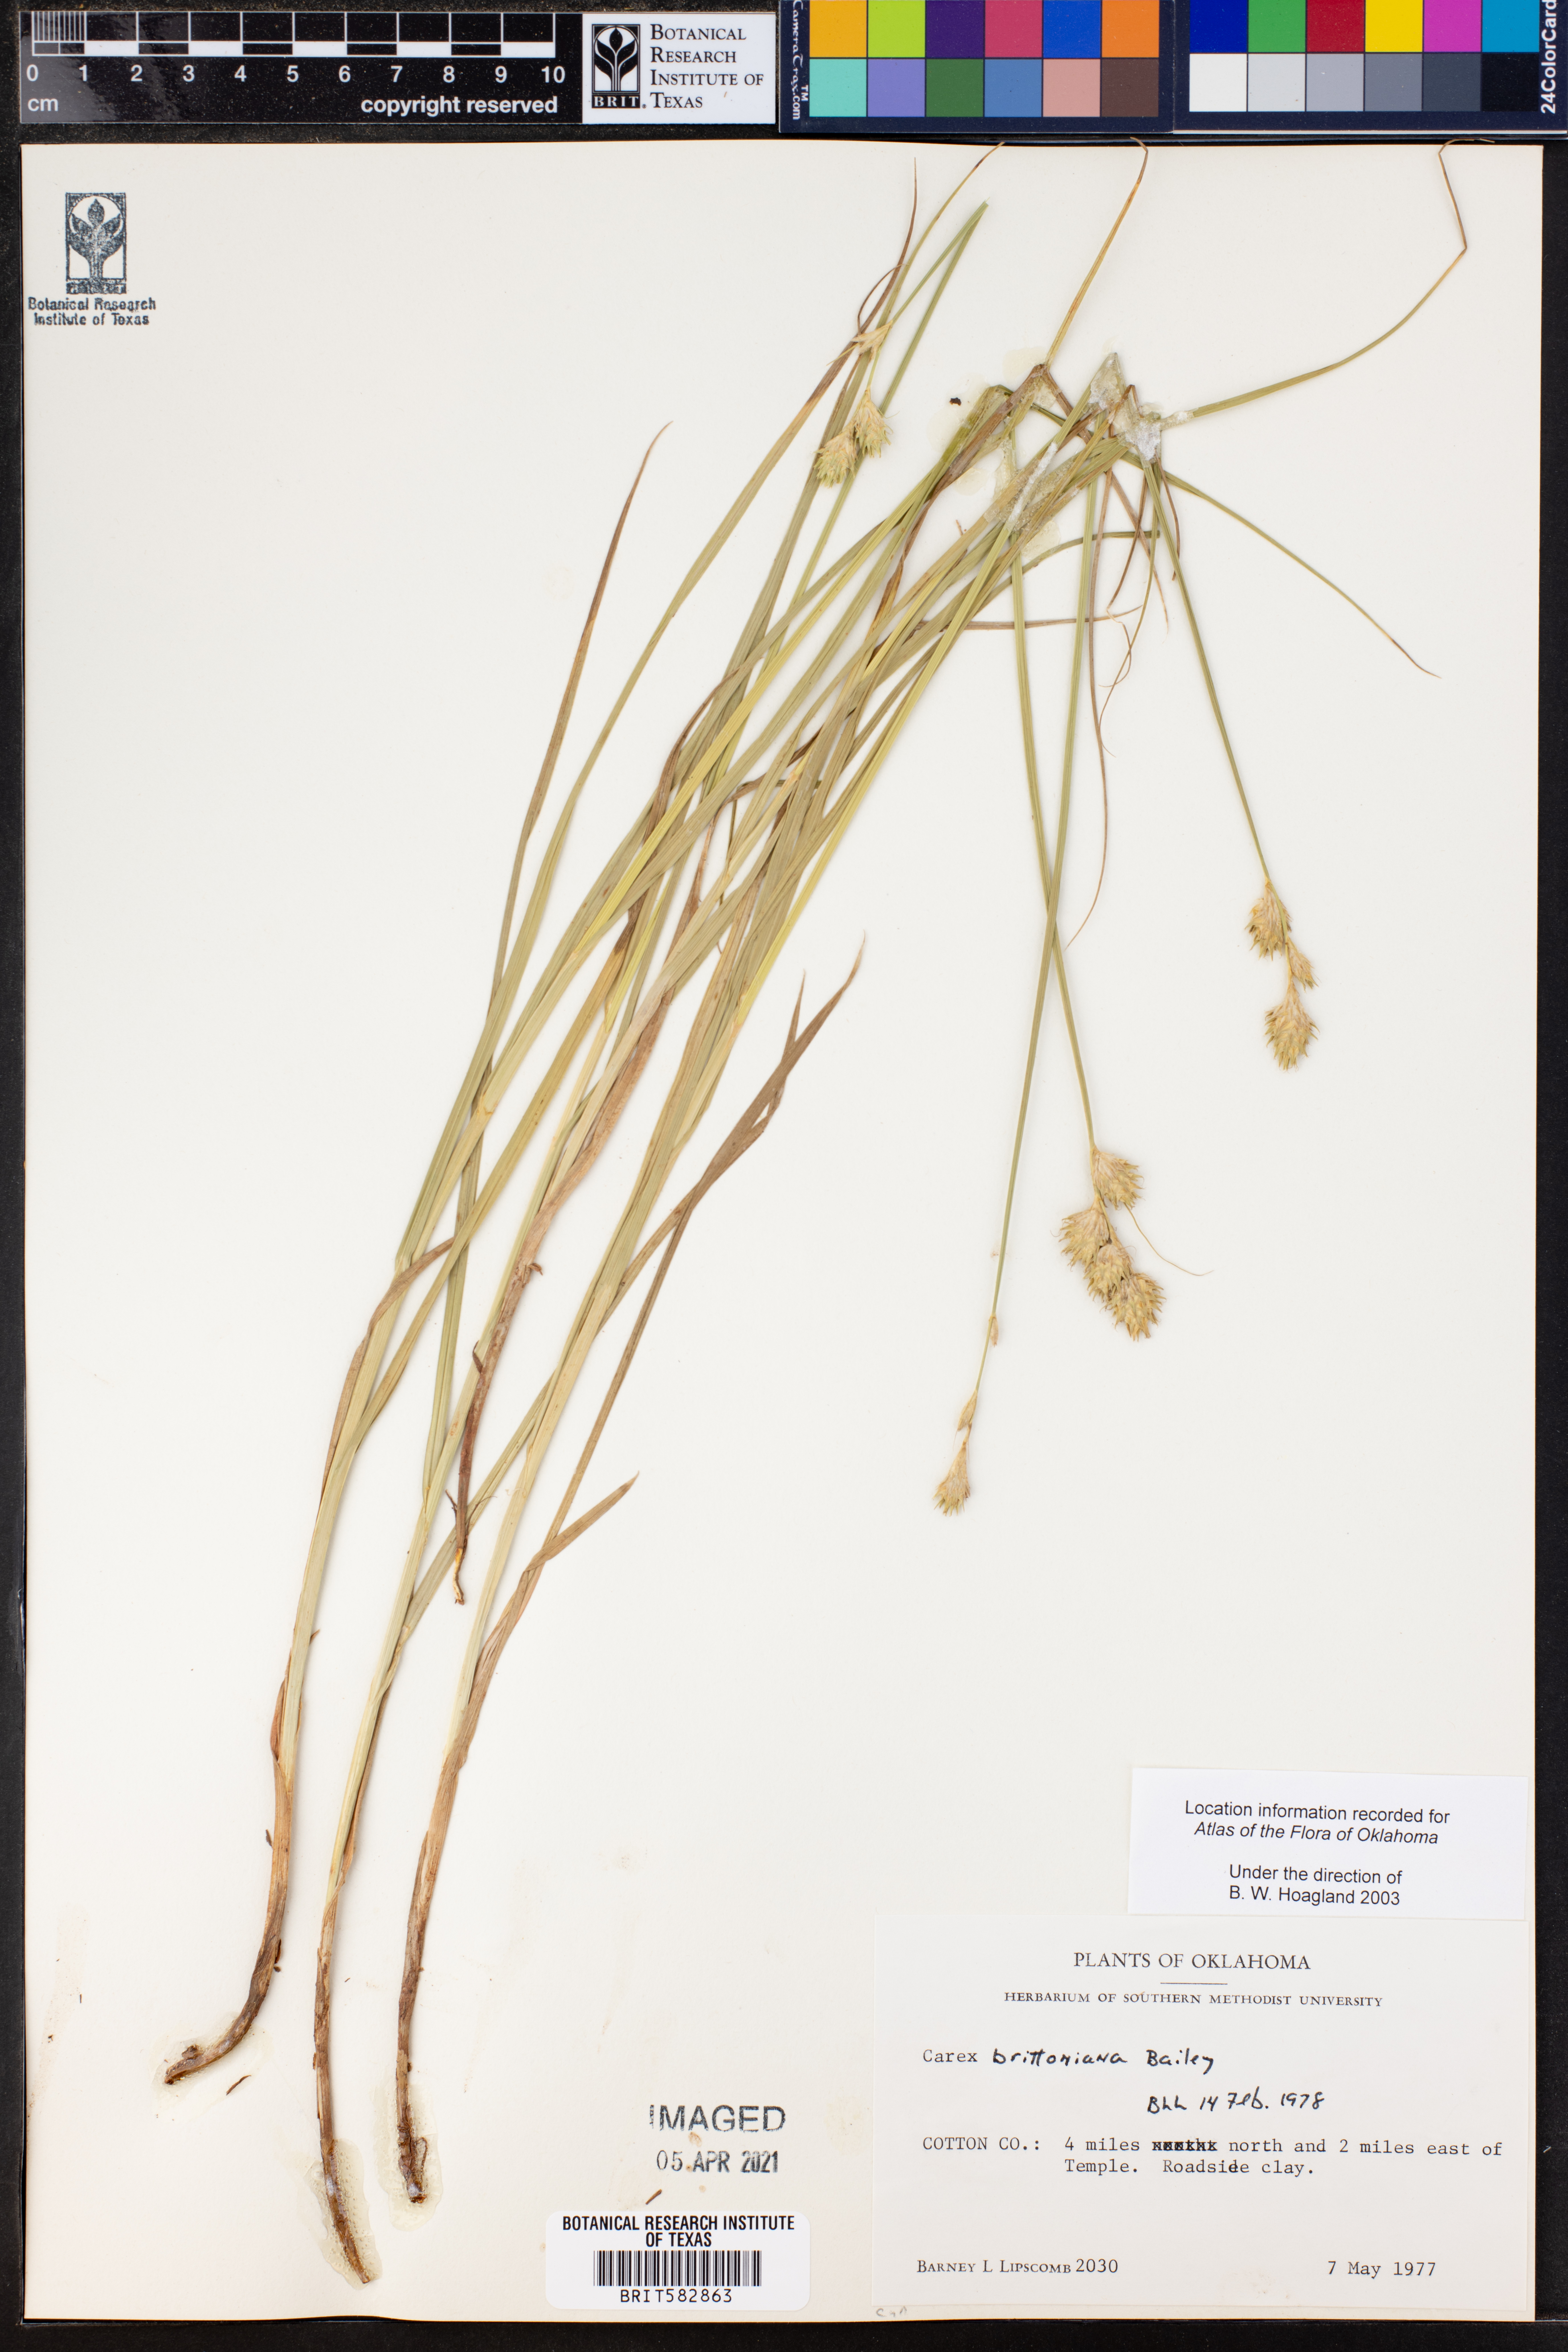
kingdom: Plantae
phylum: Tracheophyta
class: Liliopsida
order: Poales
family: Cyperaceae
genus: Carex
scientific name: Carex tetrastachya
